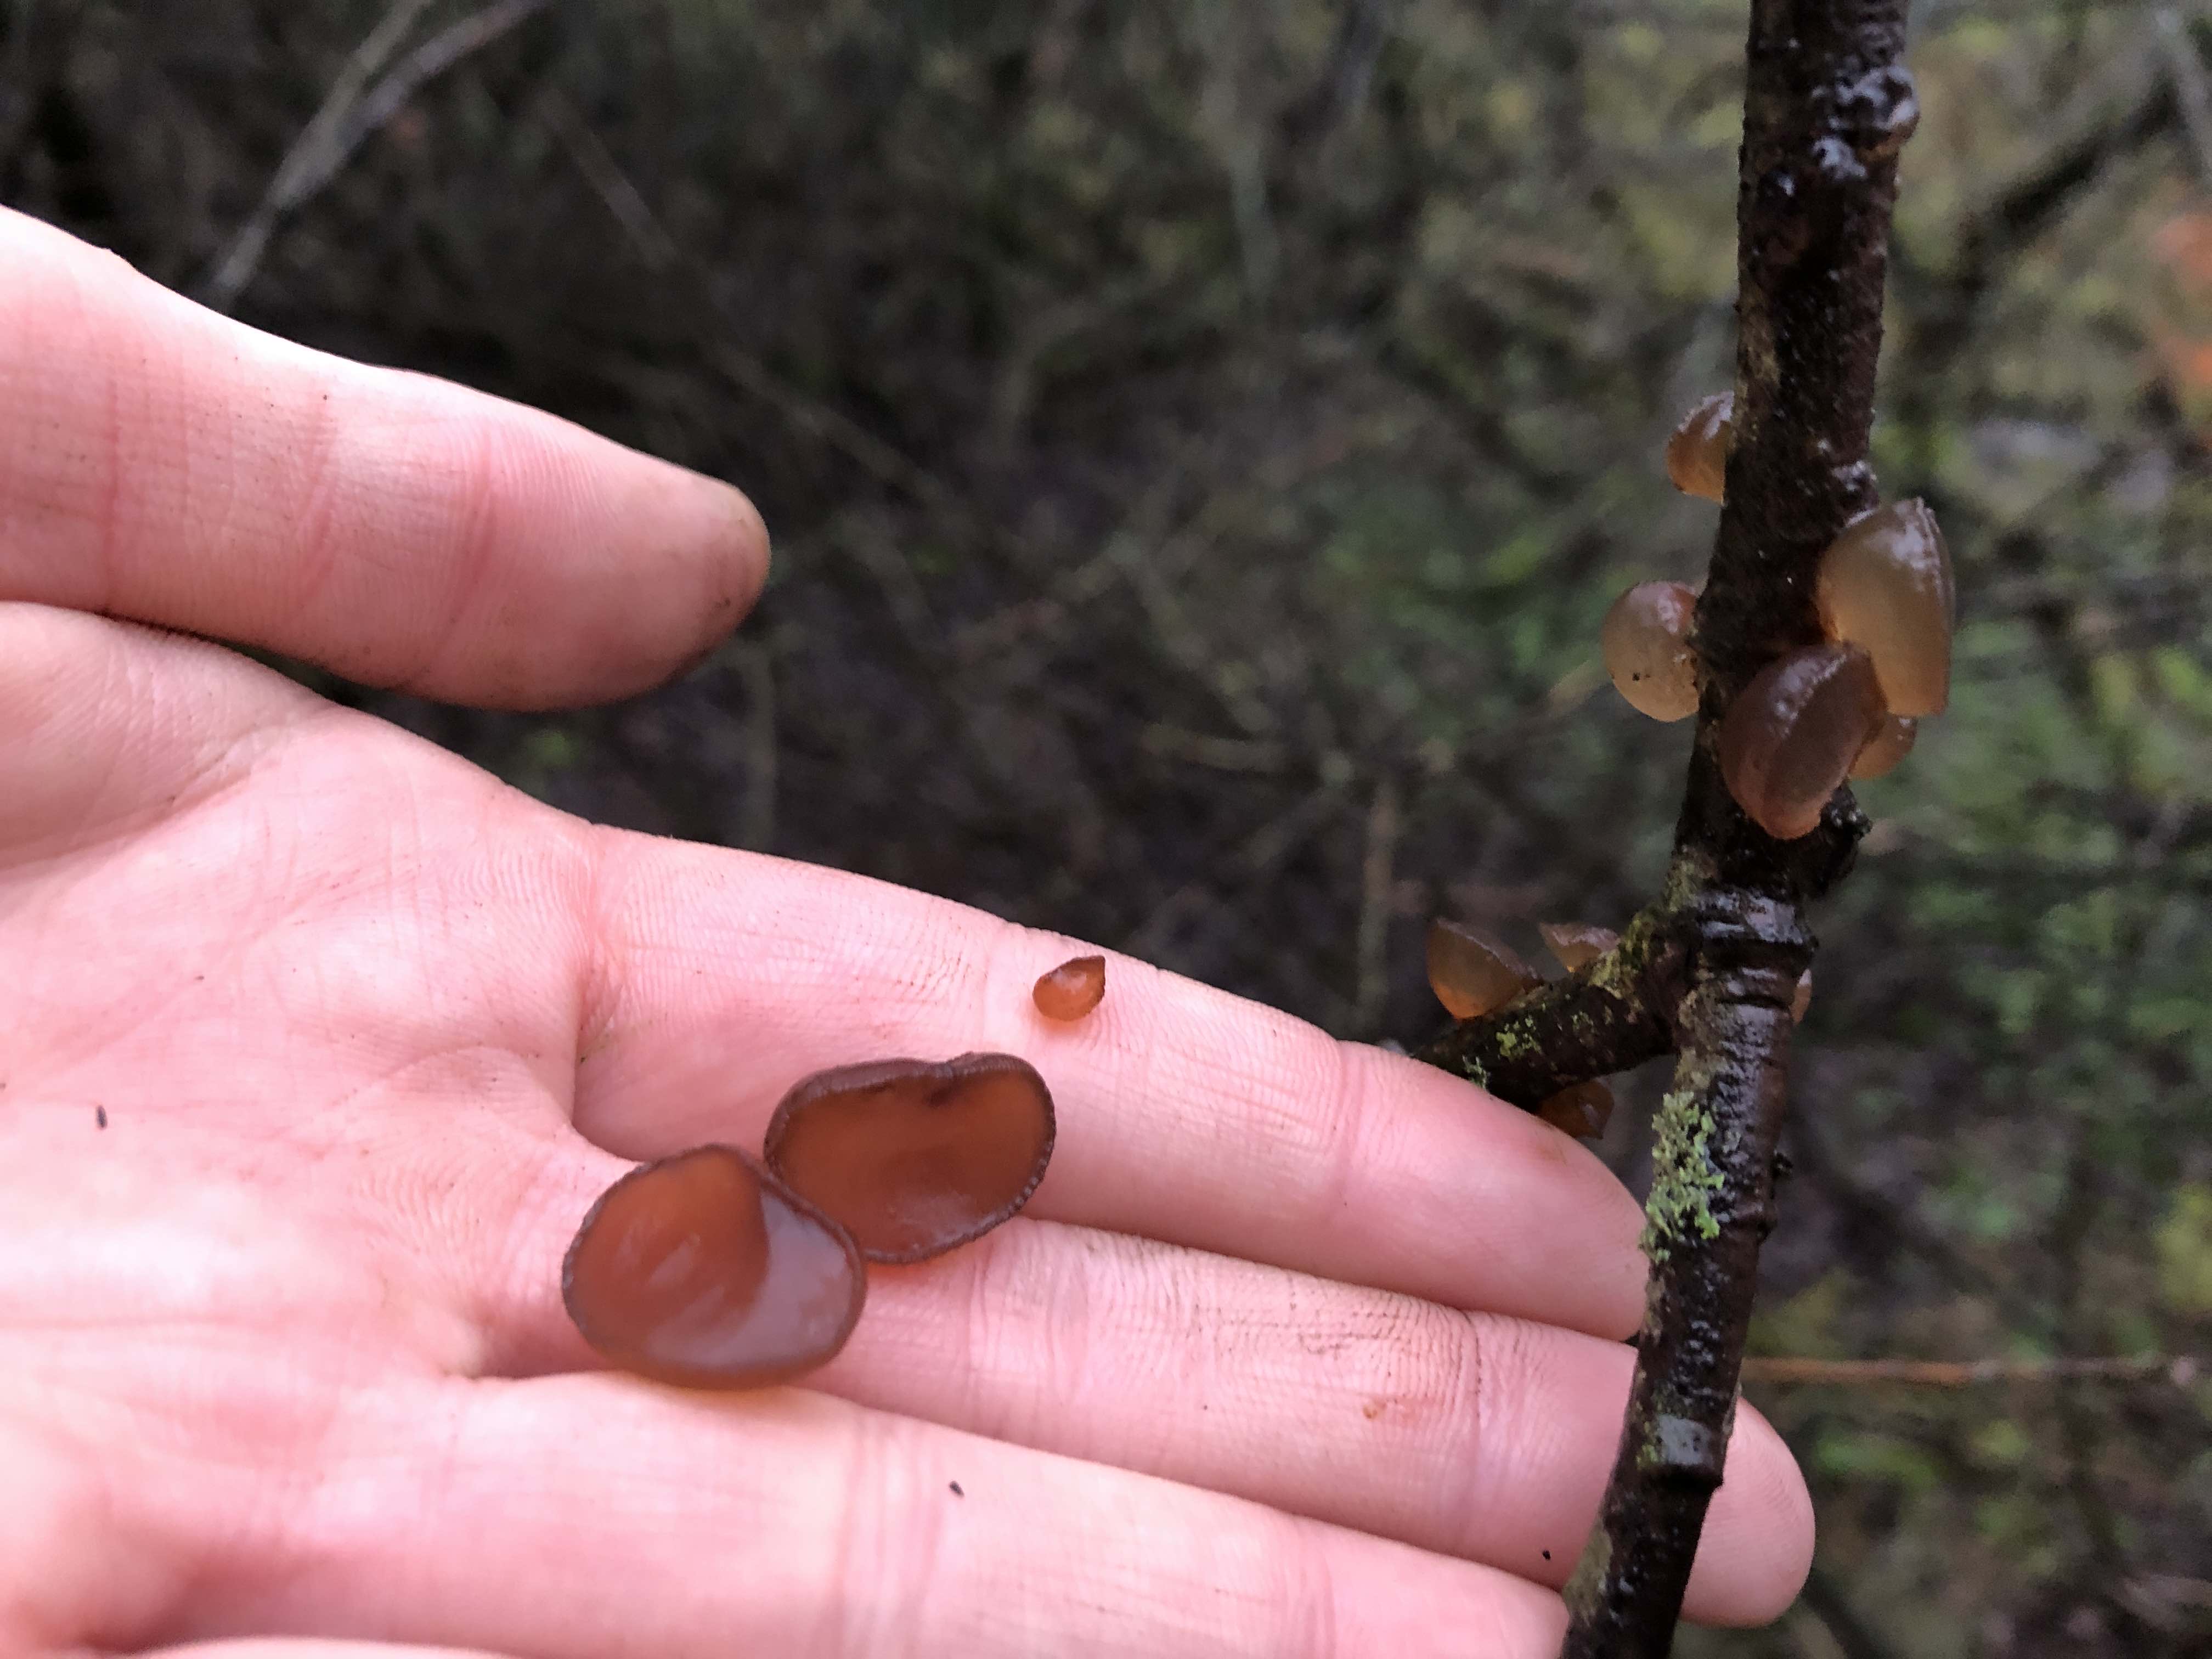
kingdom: Fungi
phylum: Basidiomycota
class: Agaricomycetes
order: Auriculariales
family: Auriculariaceae
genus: Exidia
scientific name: Exidia recisa
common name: pile-bævretop
